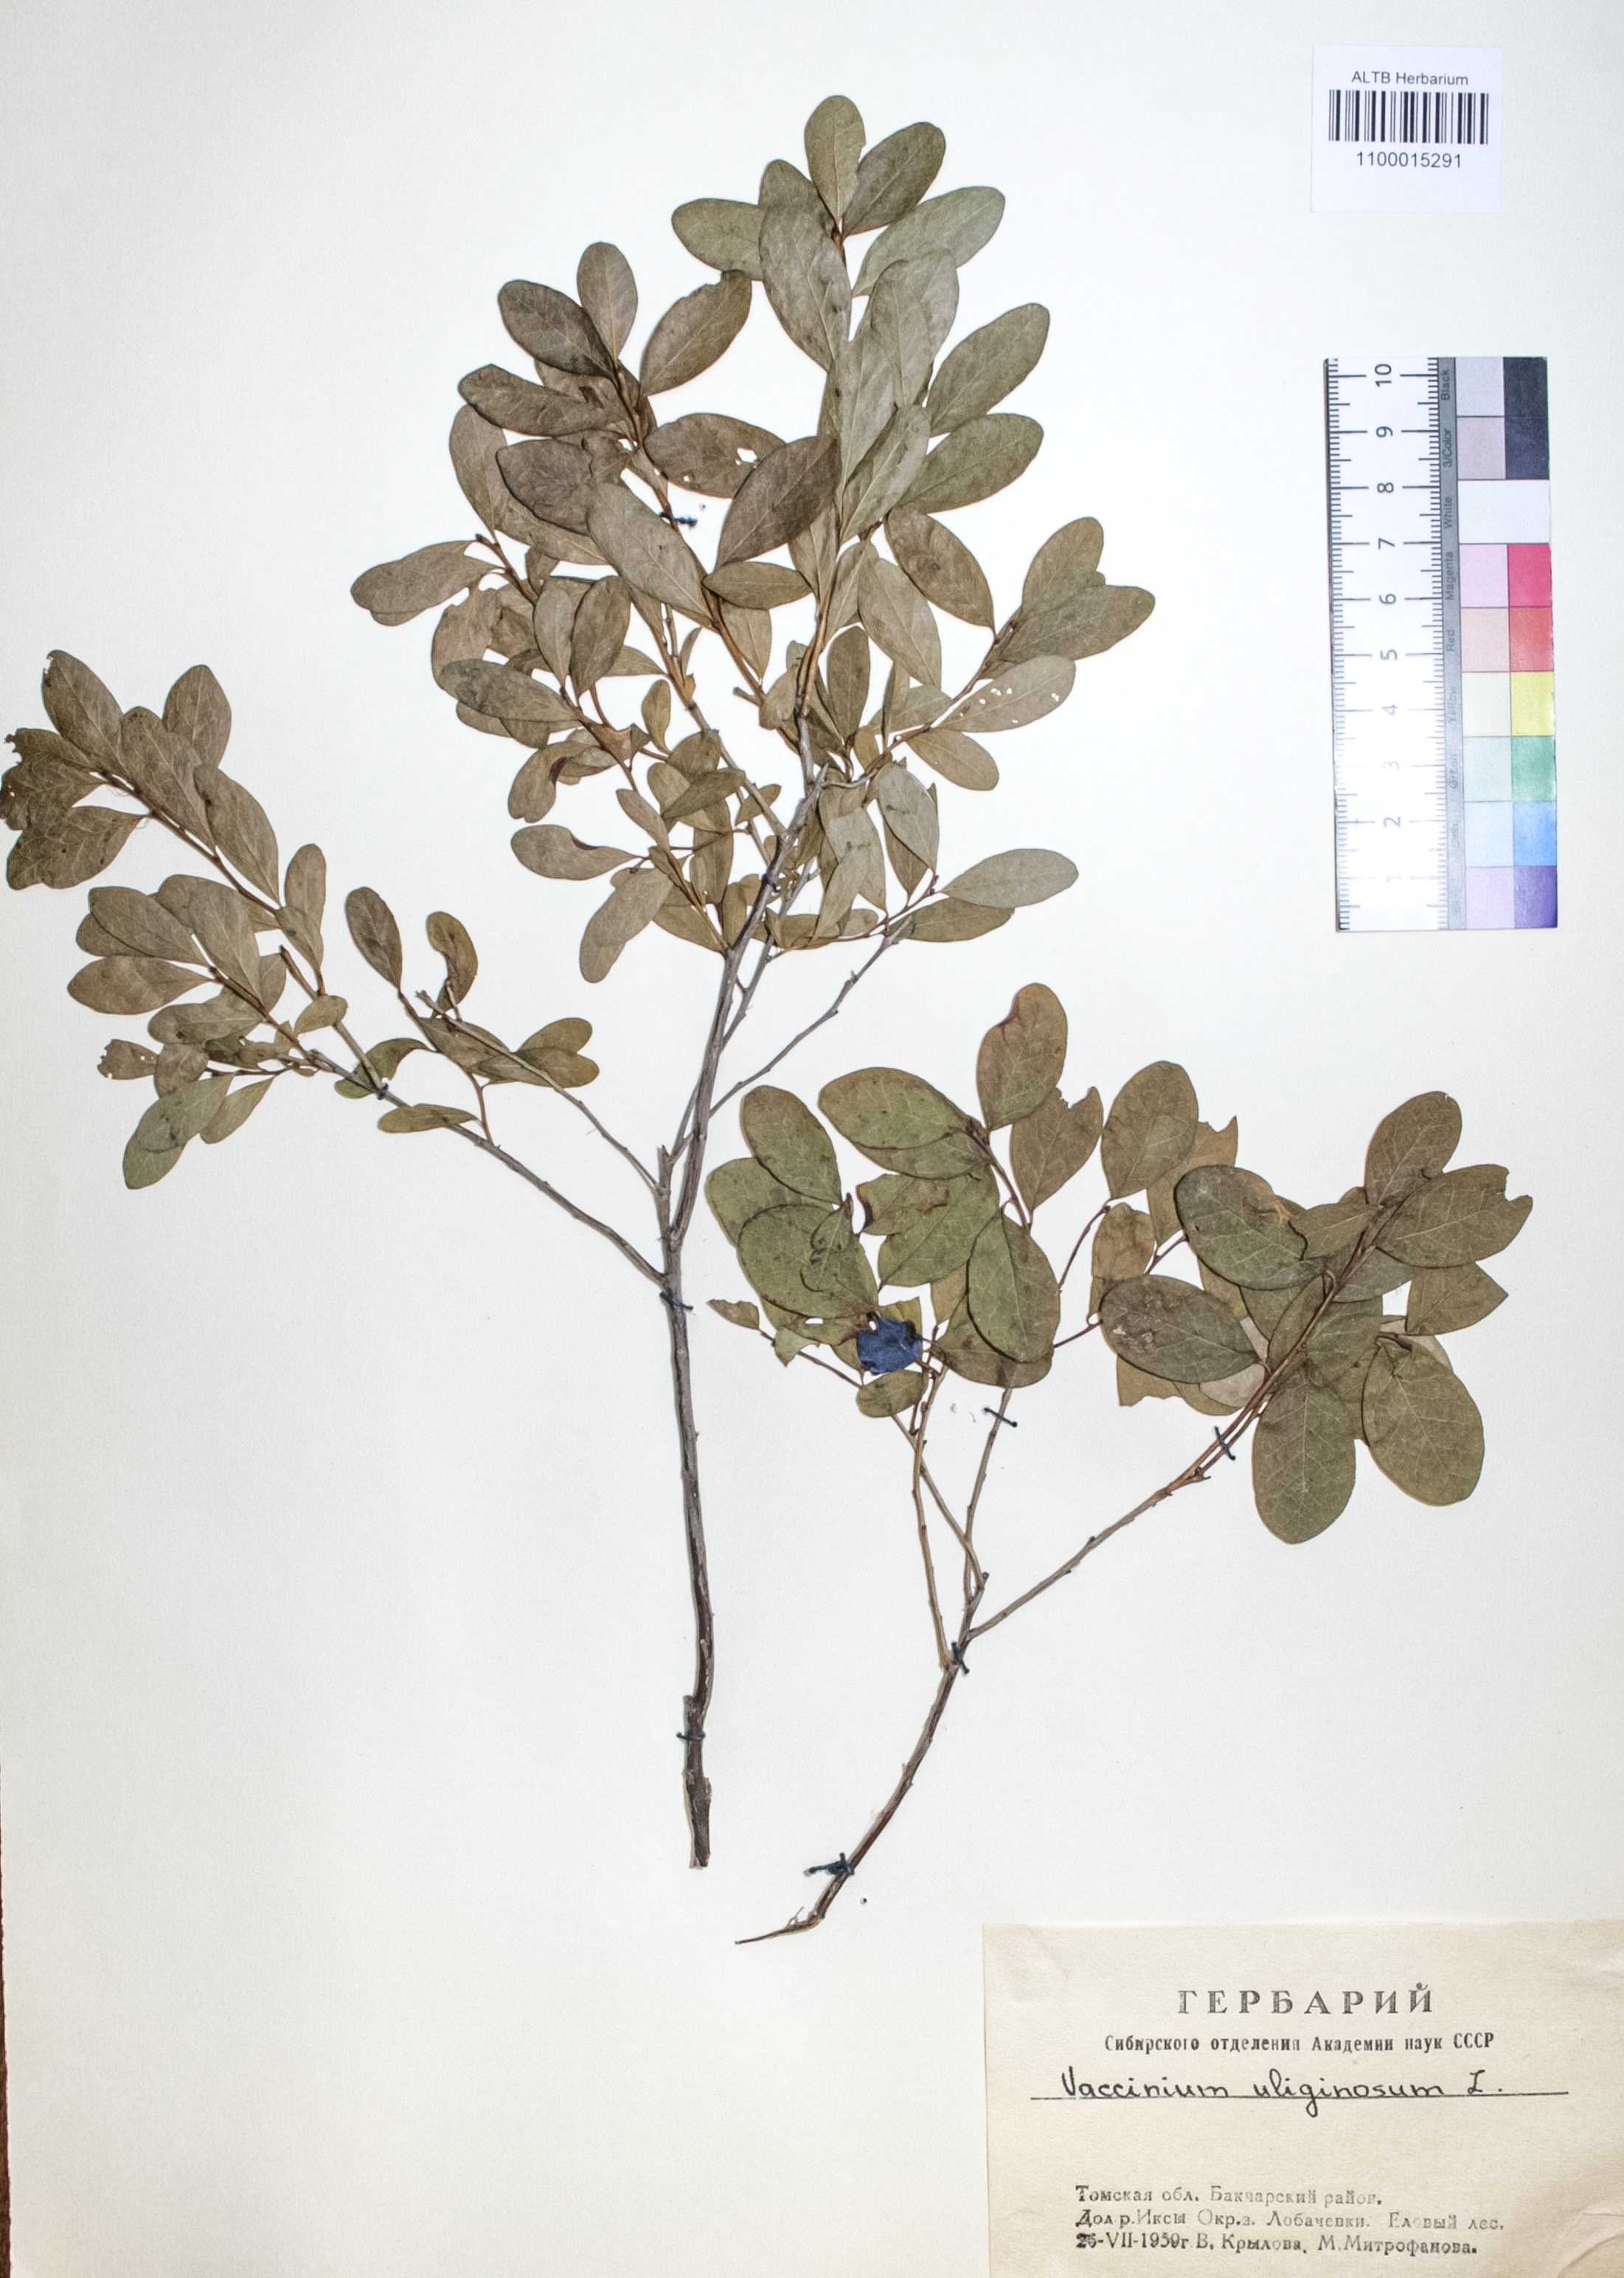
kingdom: Plantae
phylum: Tracheophyta
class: Magnoliopsida
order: Ericales
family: Ericaceae
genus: Vaccinium
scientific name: Vaccinium uliginosum
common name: Bog bilberry
